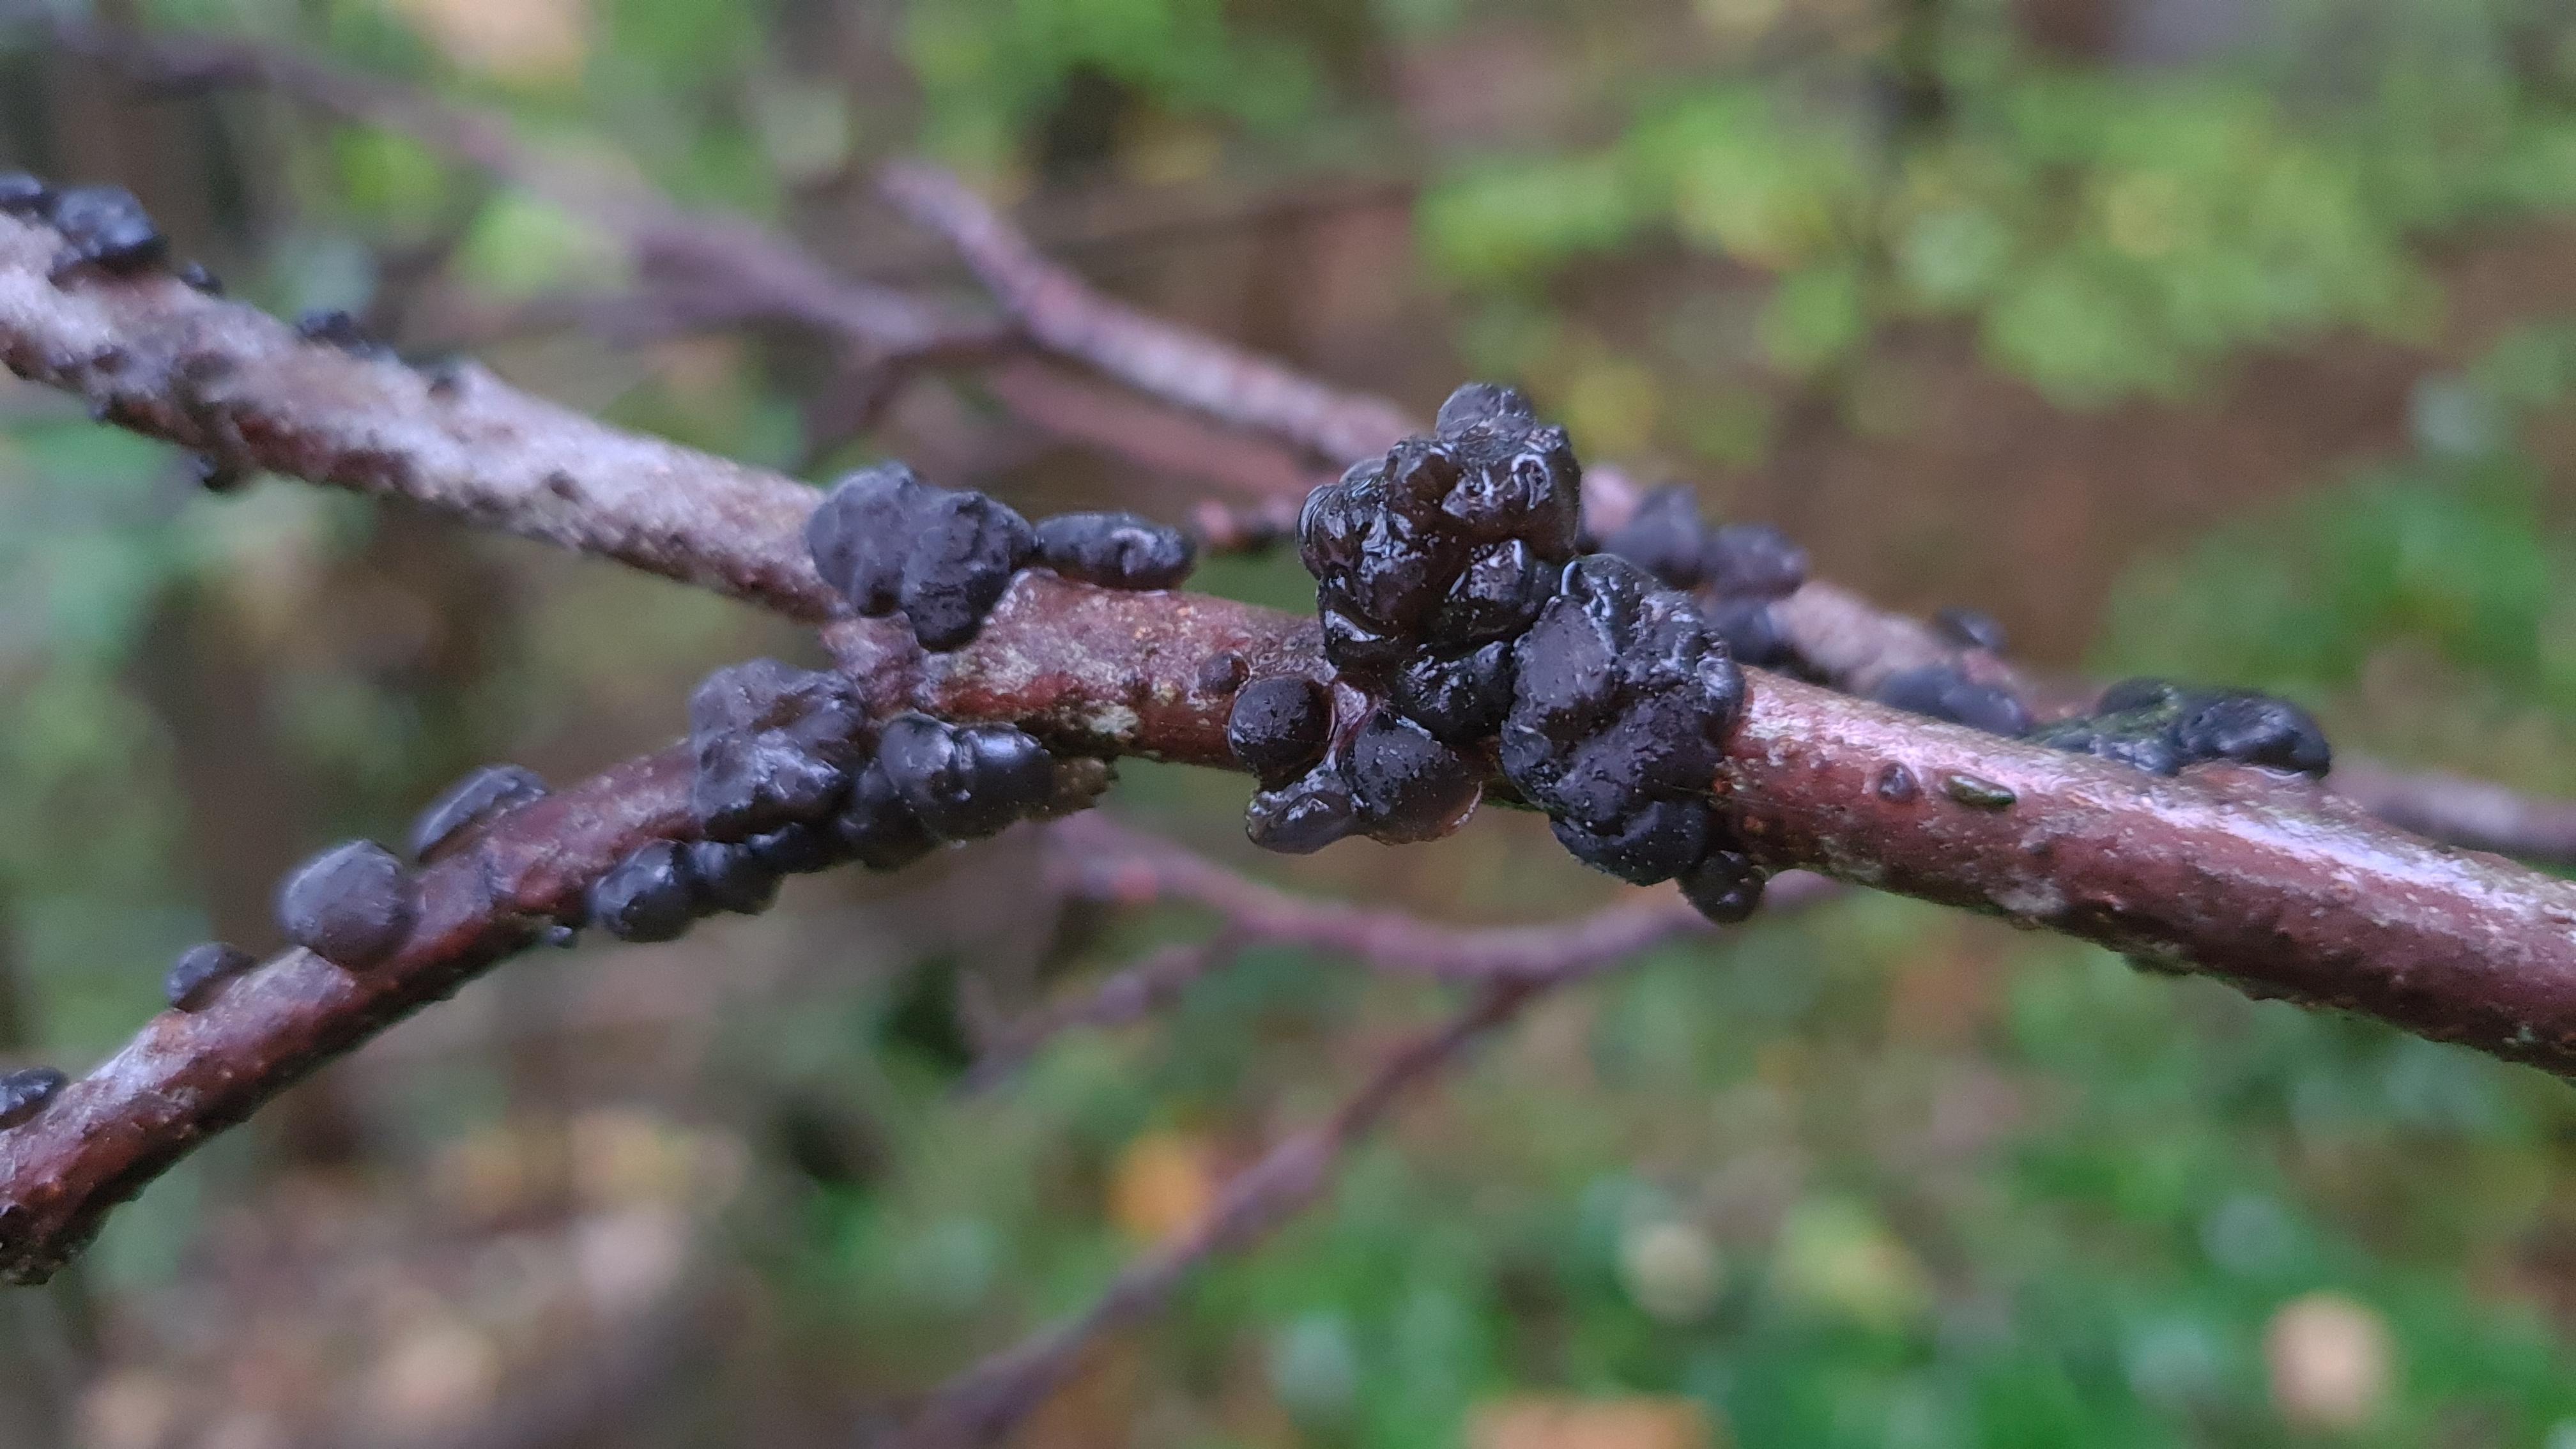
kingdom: Fungi
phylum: Basidiomycota
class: Agaricomycetes
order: Auriculariales
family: Auriculariaceae
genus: Exidia
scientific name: Exidia nigricans
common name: almindelig bævretop
